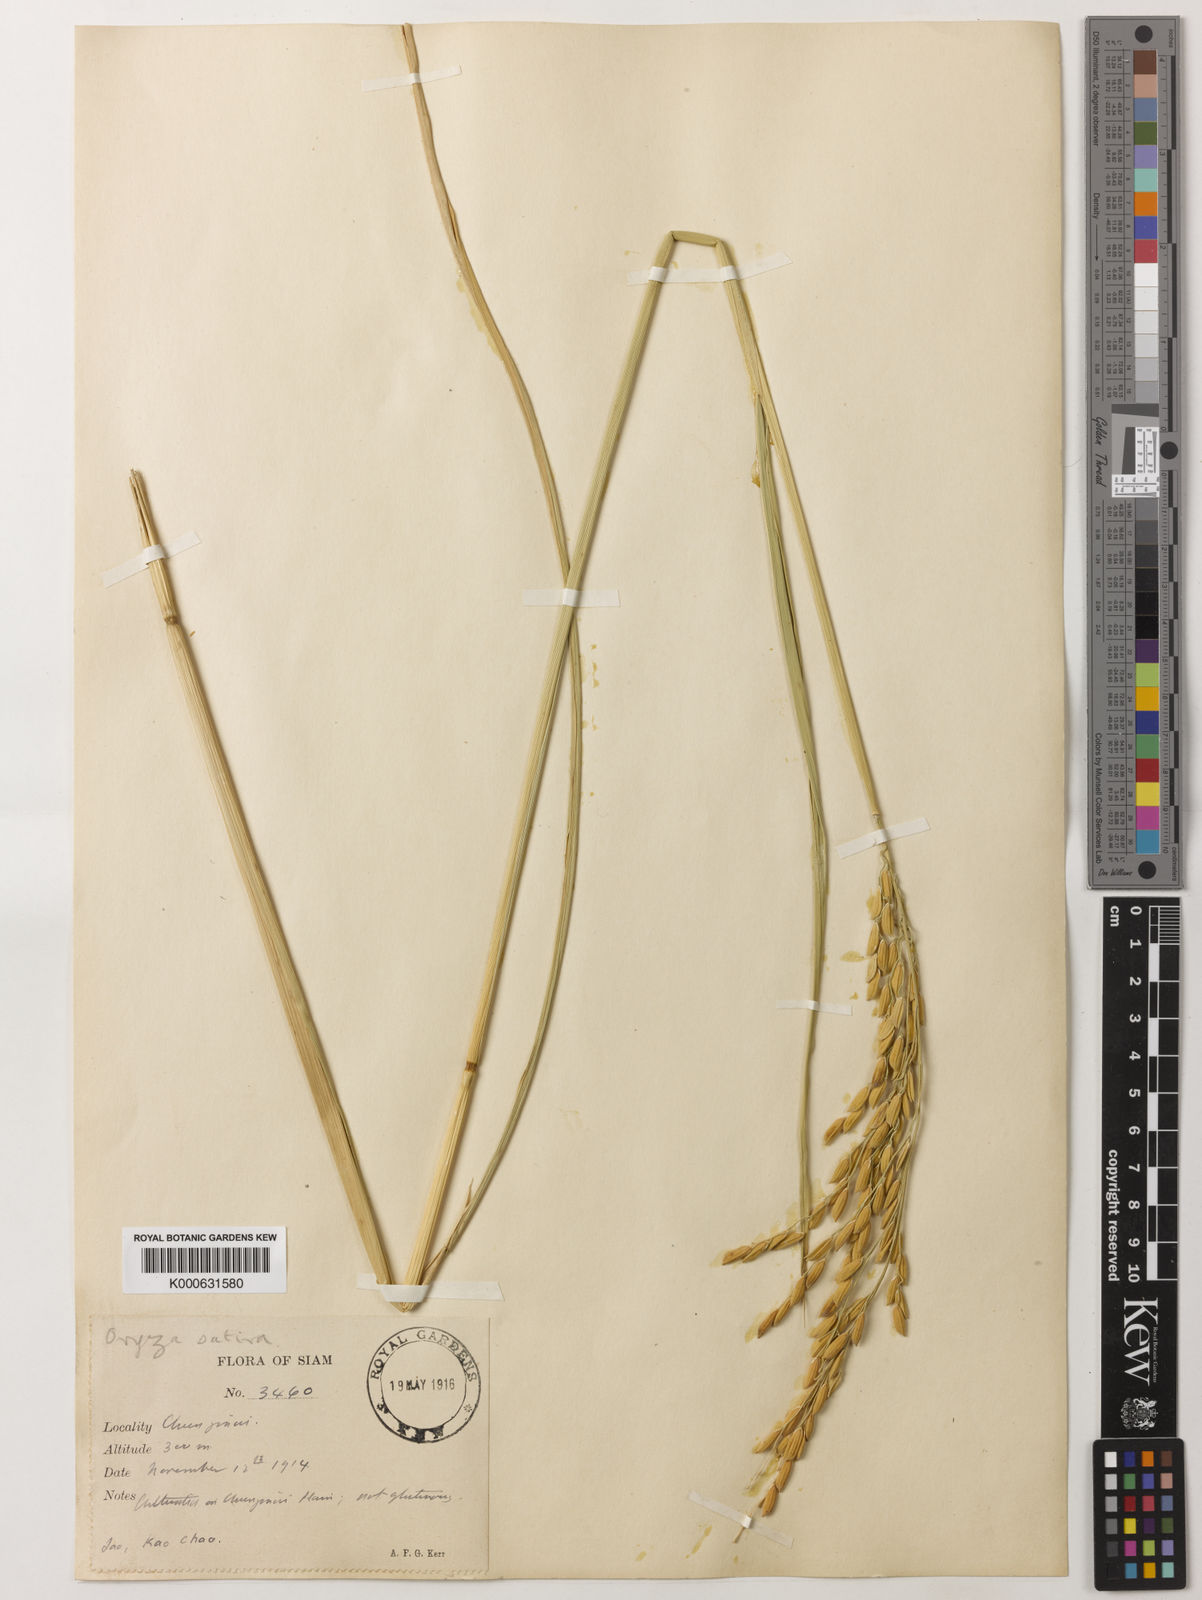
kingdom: Plantae
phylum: Tracheophyta
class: Liliopsida
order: Poales
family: Poaceae
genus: Oryza
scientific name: Oryza sativa
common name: Rice
